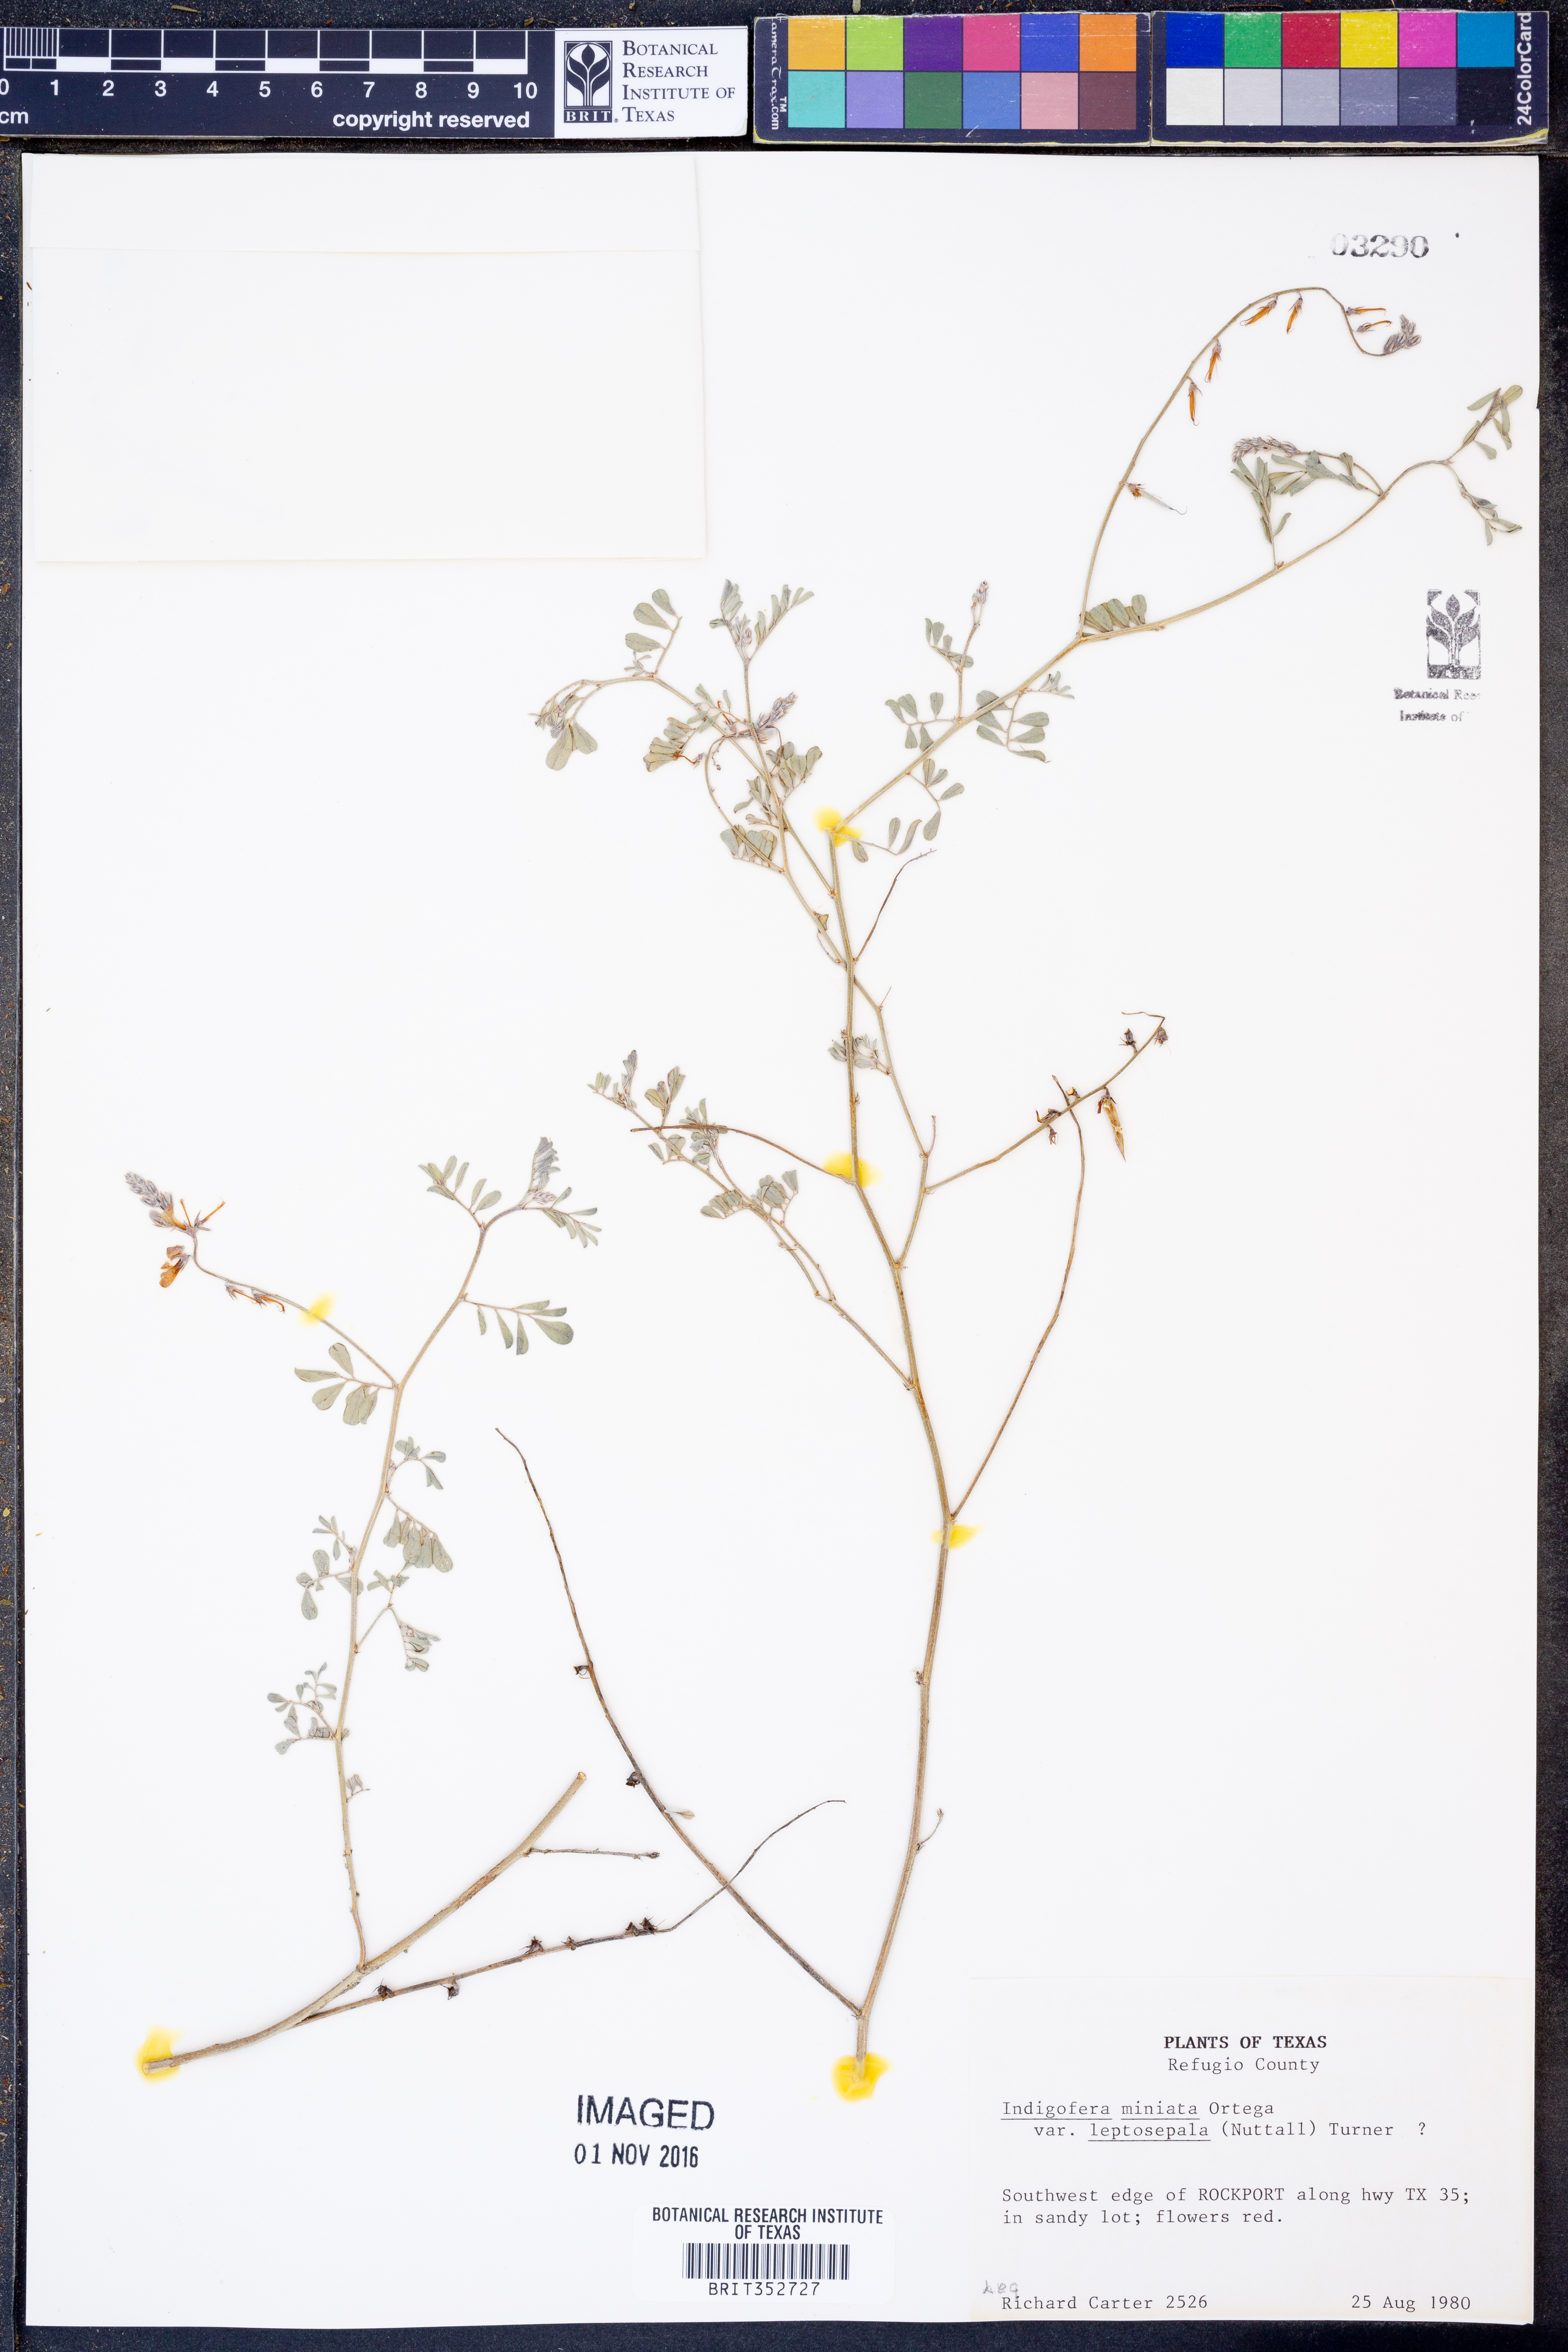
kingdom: Plantae
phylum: Tracheophyta
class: Magnoliopsida
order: Fabales
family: Fabaceae
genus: Indigofera
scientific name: Indigofera miniata
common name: Coast indigo
